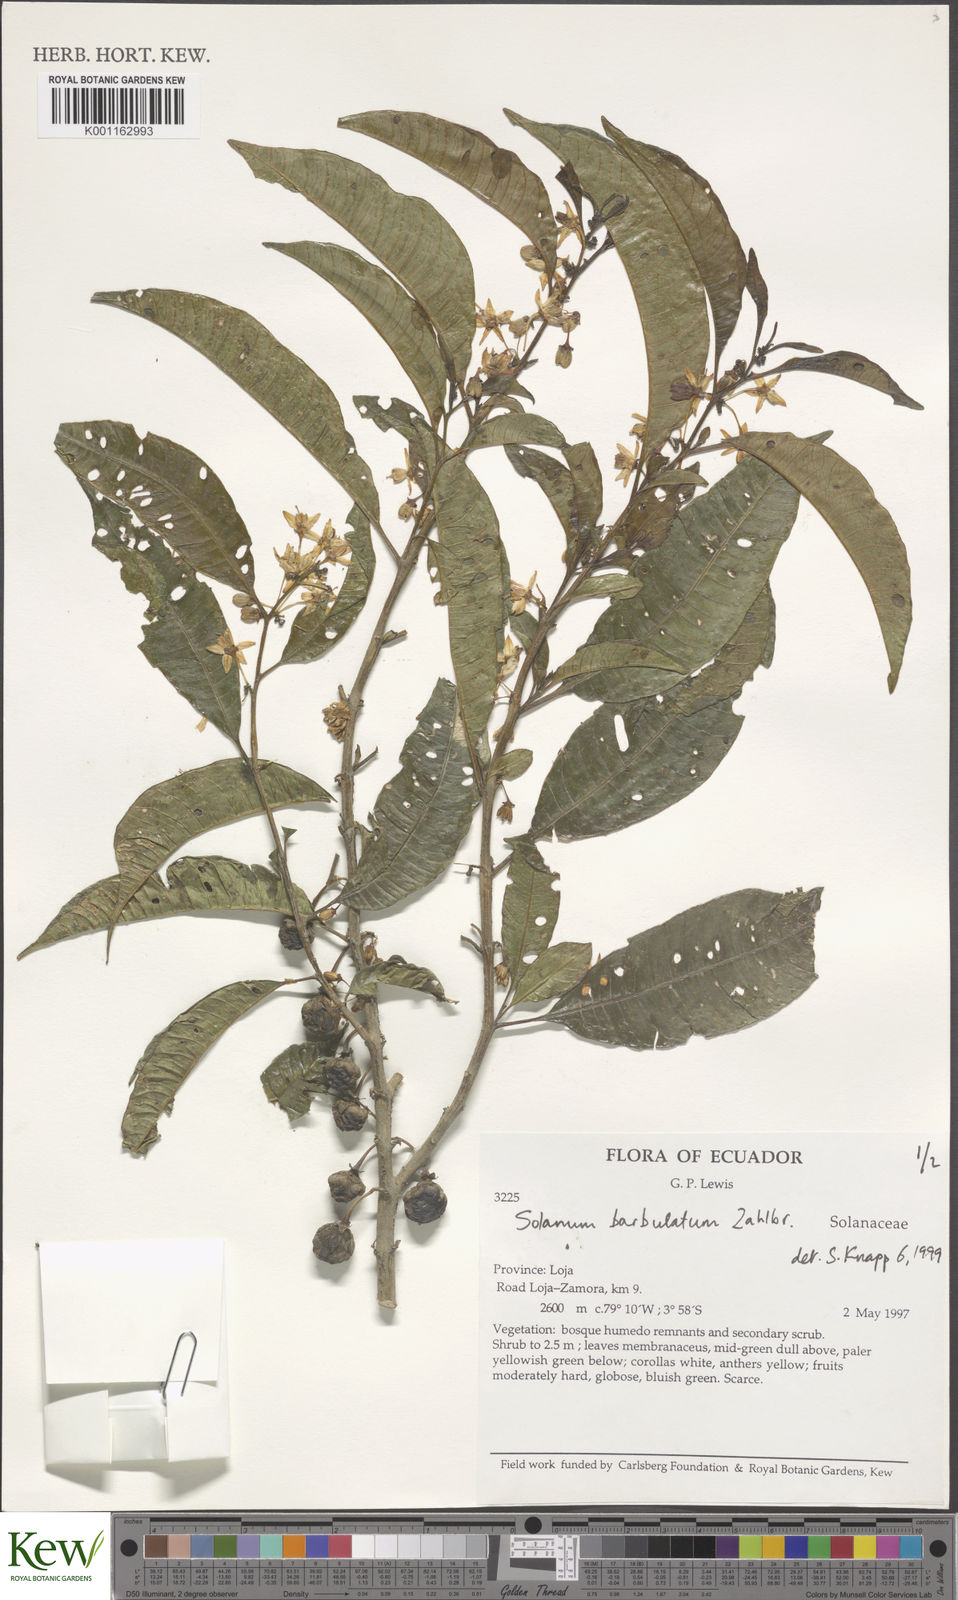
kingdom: Plantae
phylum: Tracheophyta
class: Magnoliopsida
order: Solanales
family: Solanaceae
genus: Solanum
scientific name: Solanum barbulatum
